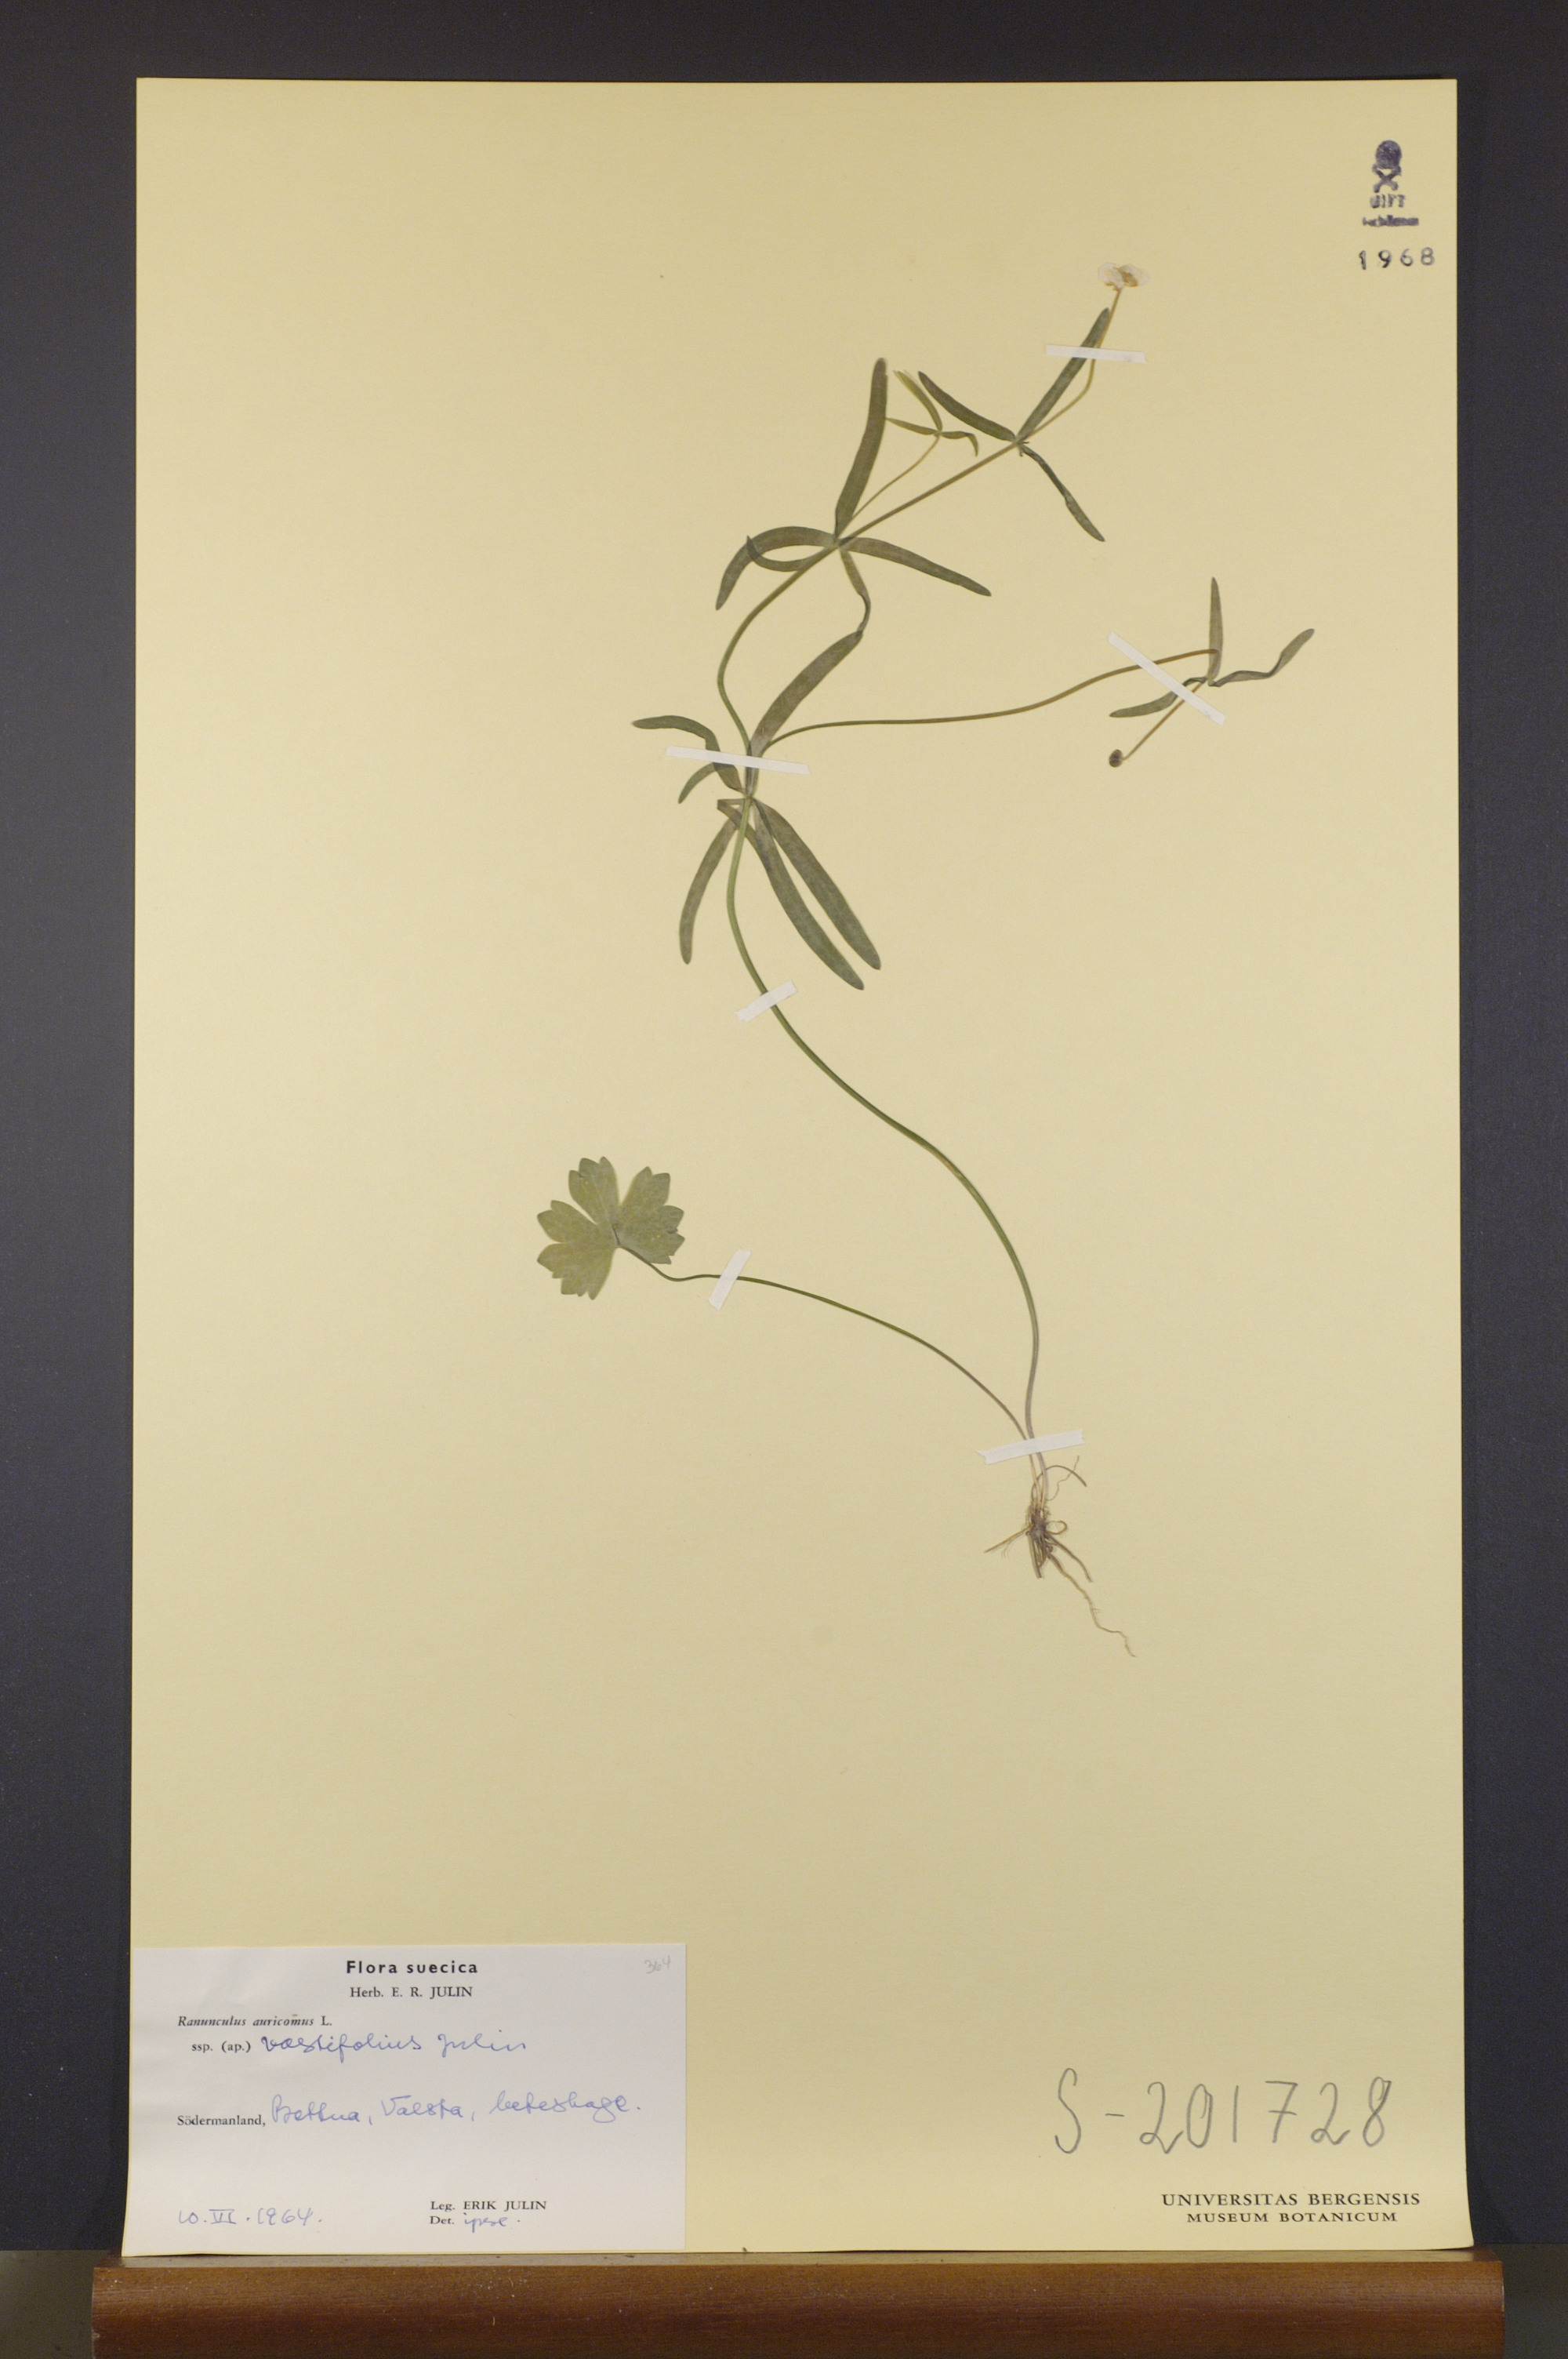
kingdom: Plantae
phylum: Tracheophyta
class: Magnoliopsida
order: Ranunculales
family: Ranunculaceae
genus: Ranunculus
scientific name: Ranunculus vastifolius
